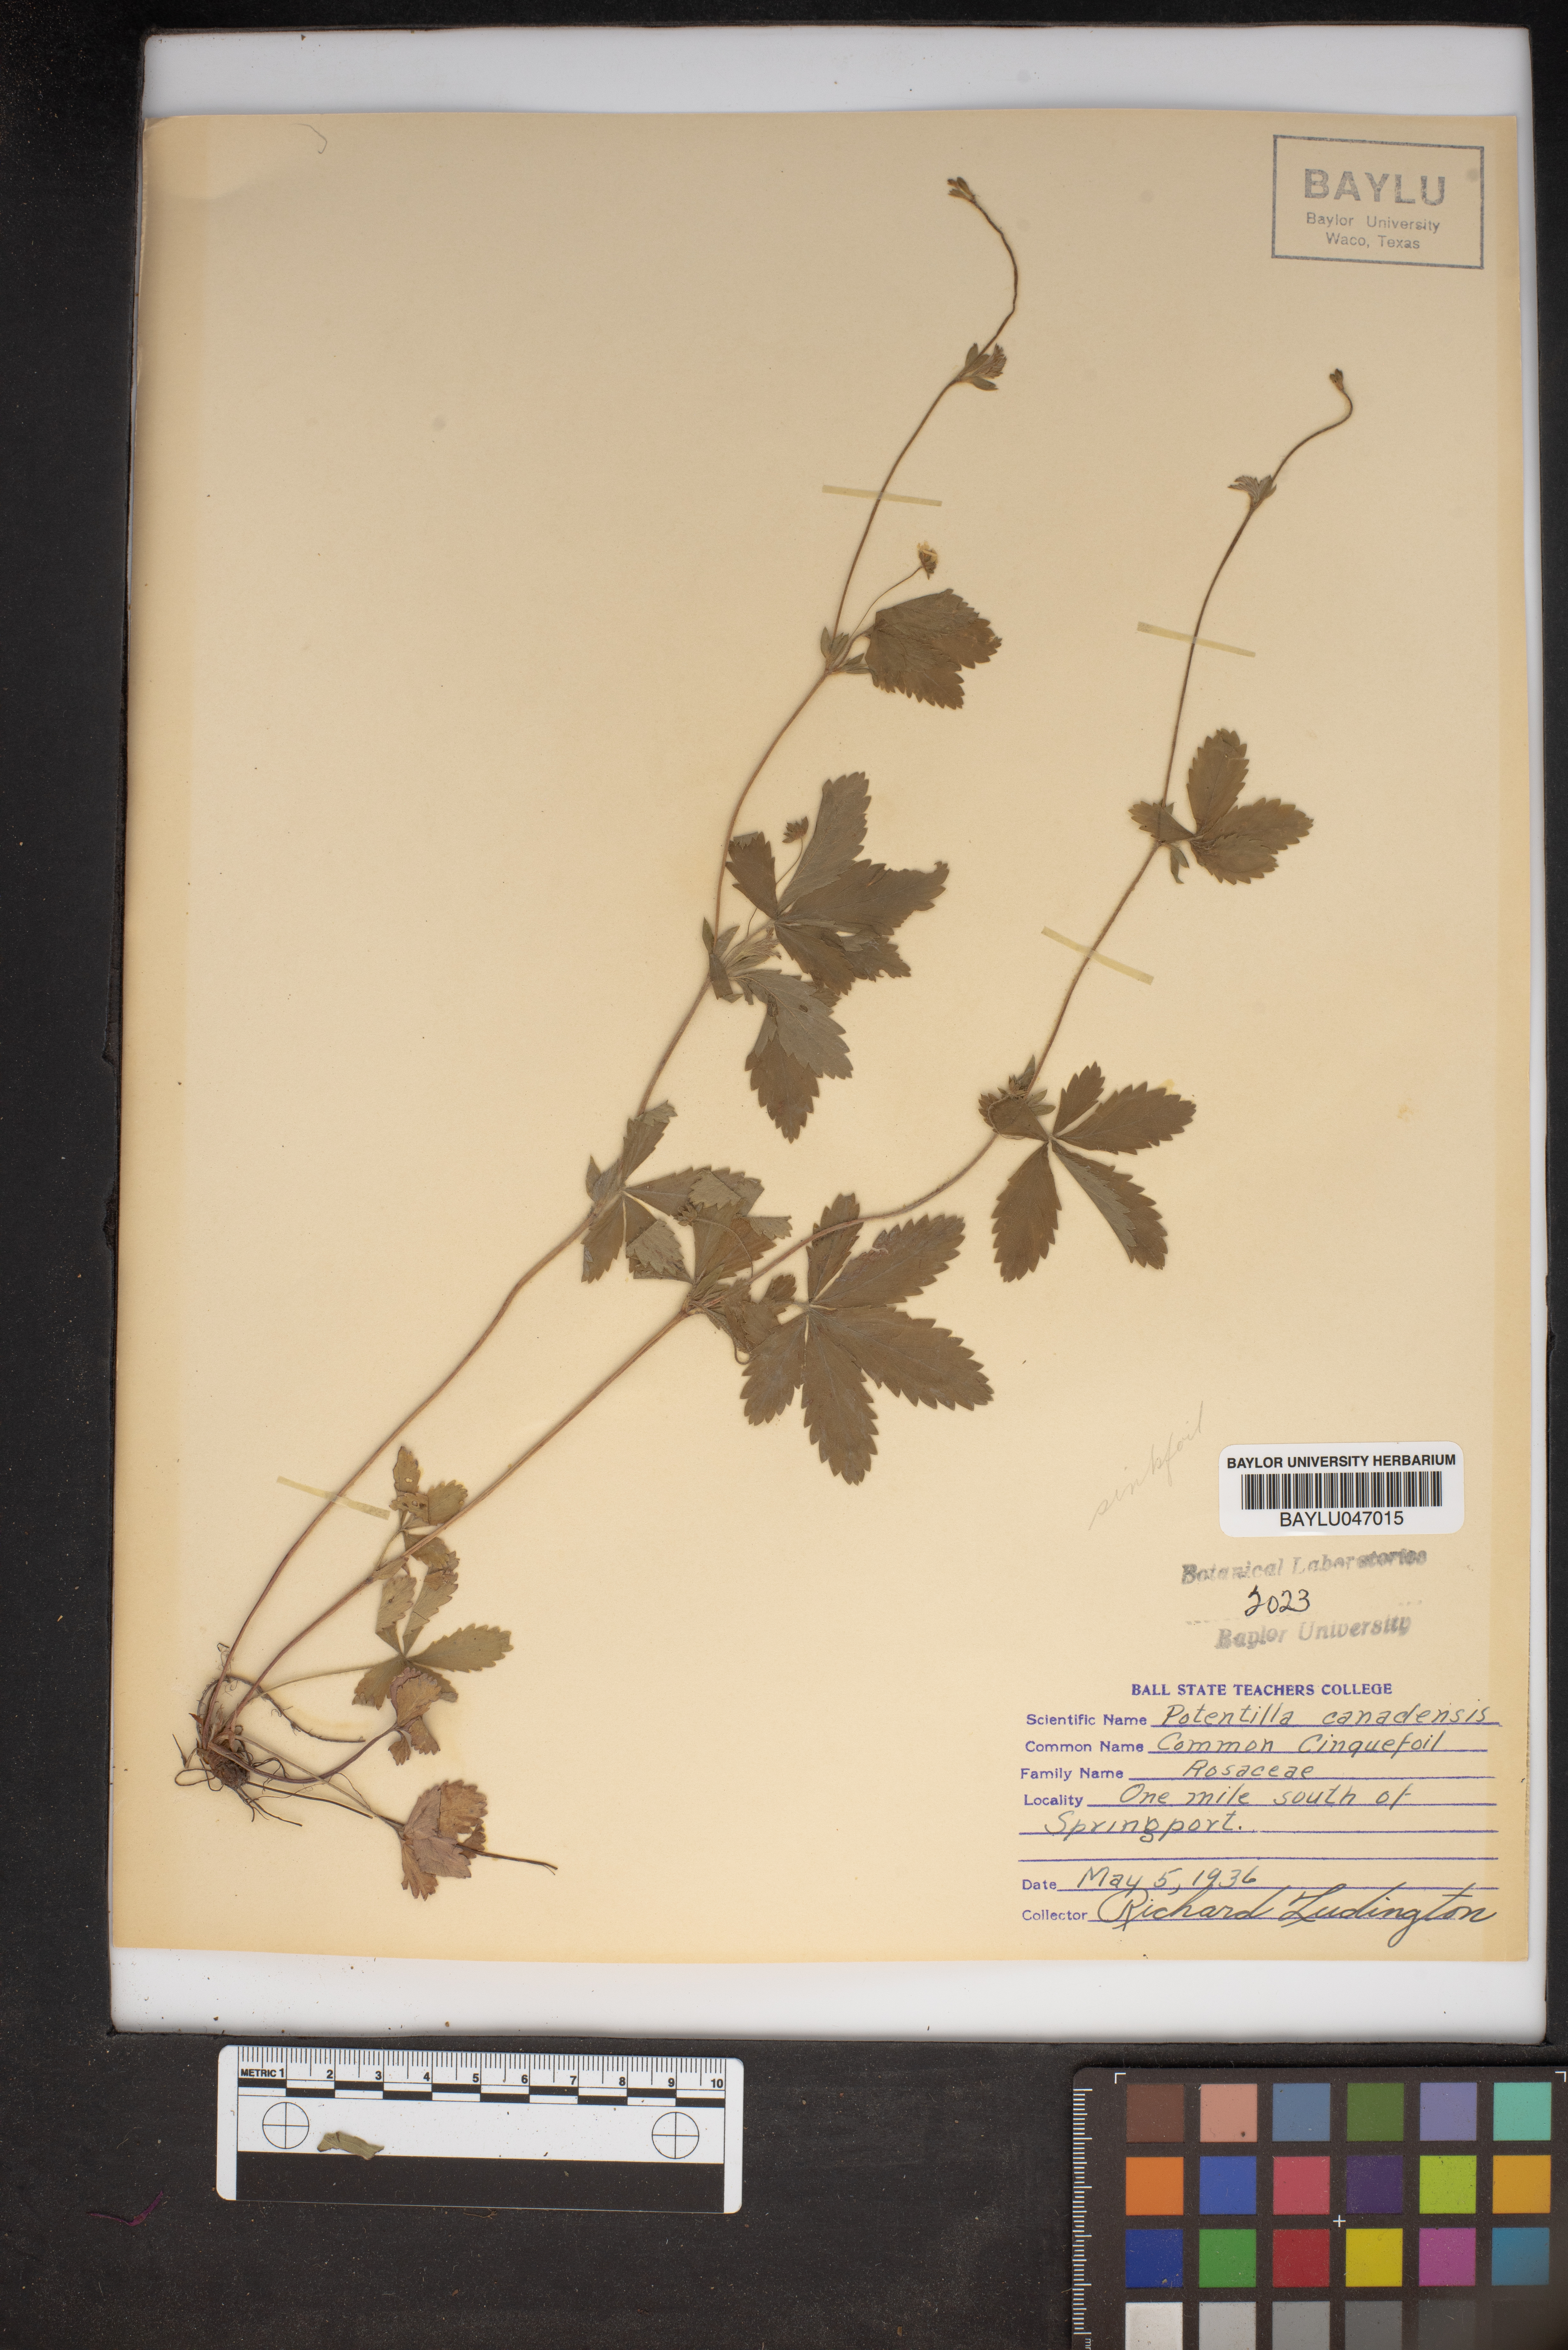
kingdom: Plantae
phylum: Tracheophyta
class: Magnoliopsida
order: Rosales
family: Rosaceae
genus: Potentilla
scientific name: Potentilla canadensis
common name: Canada cinquefoil
